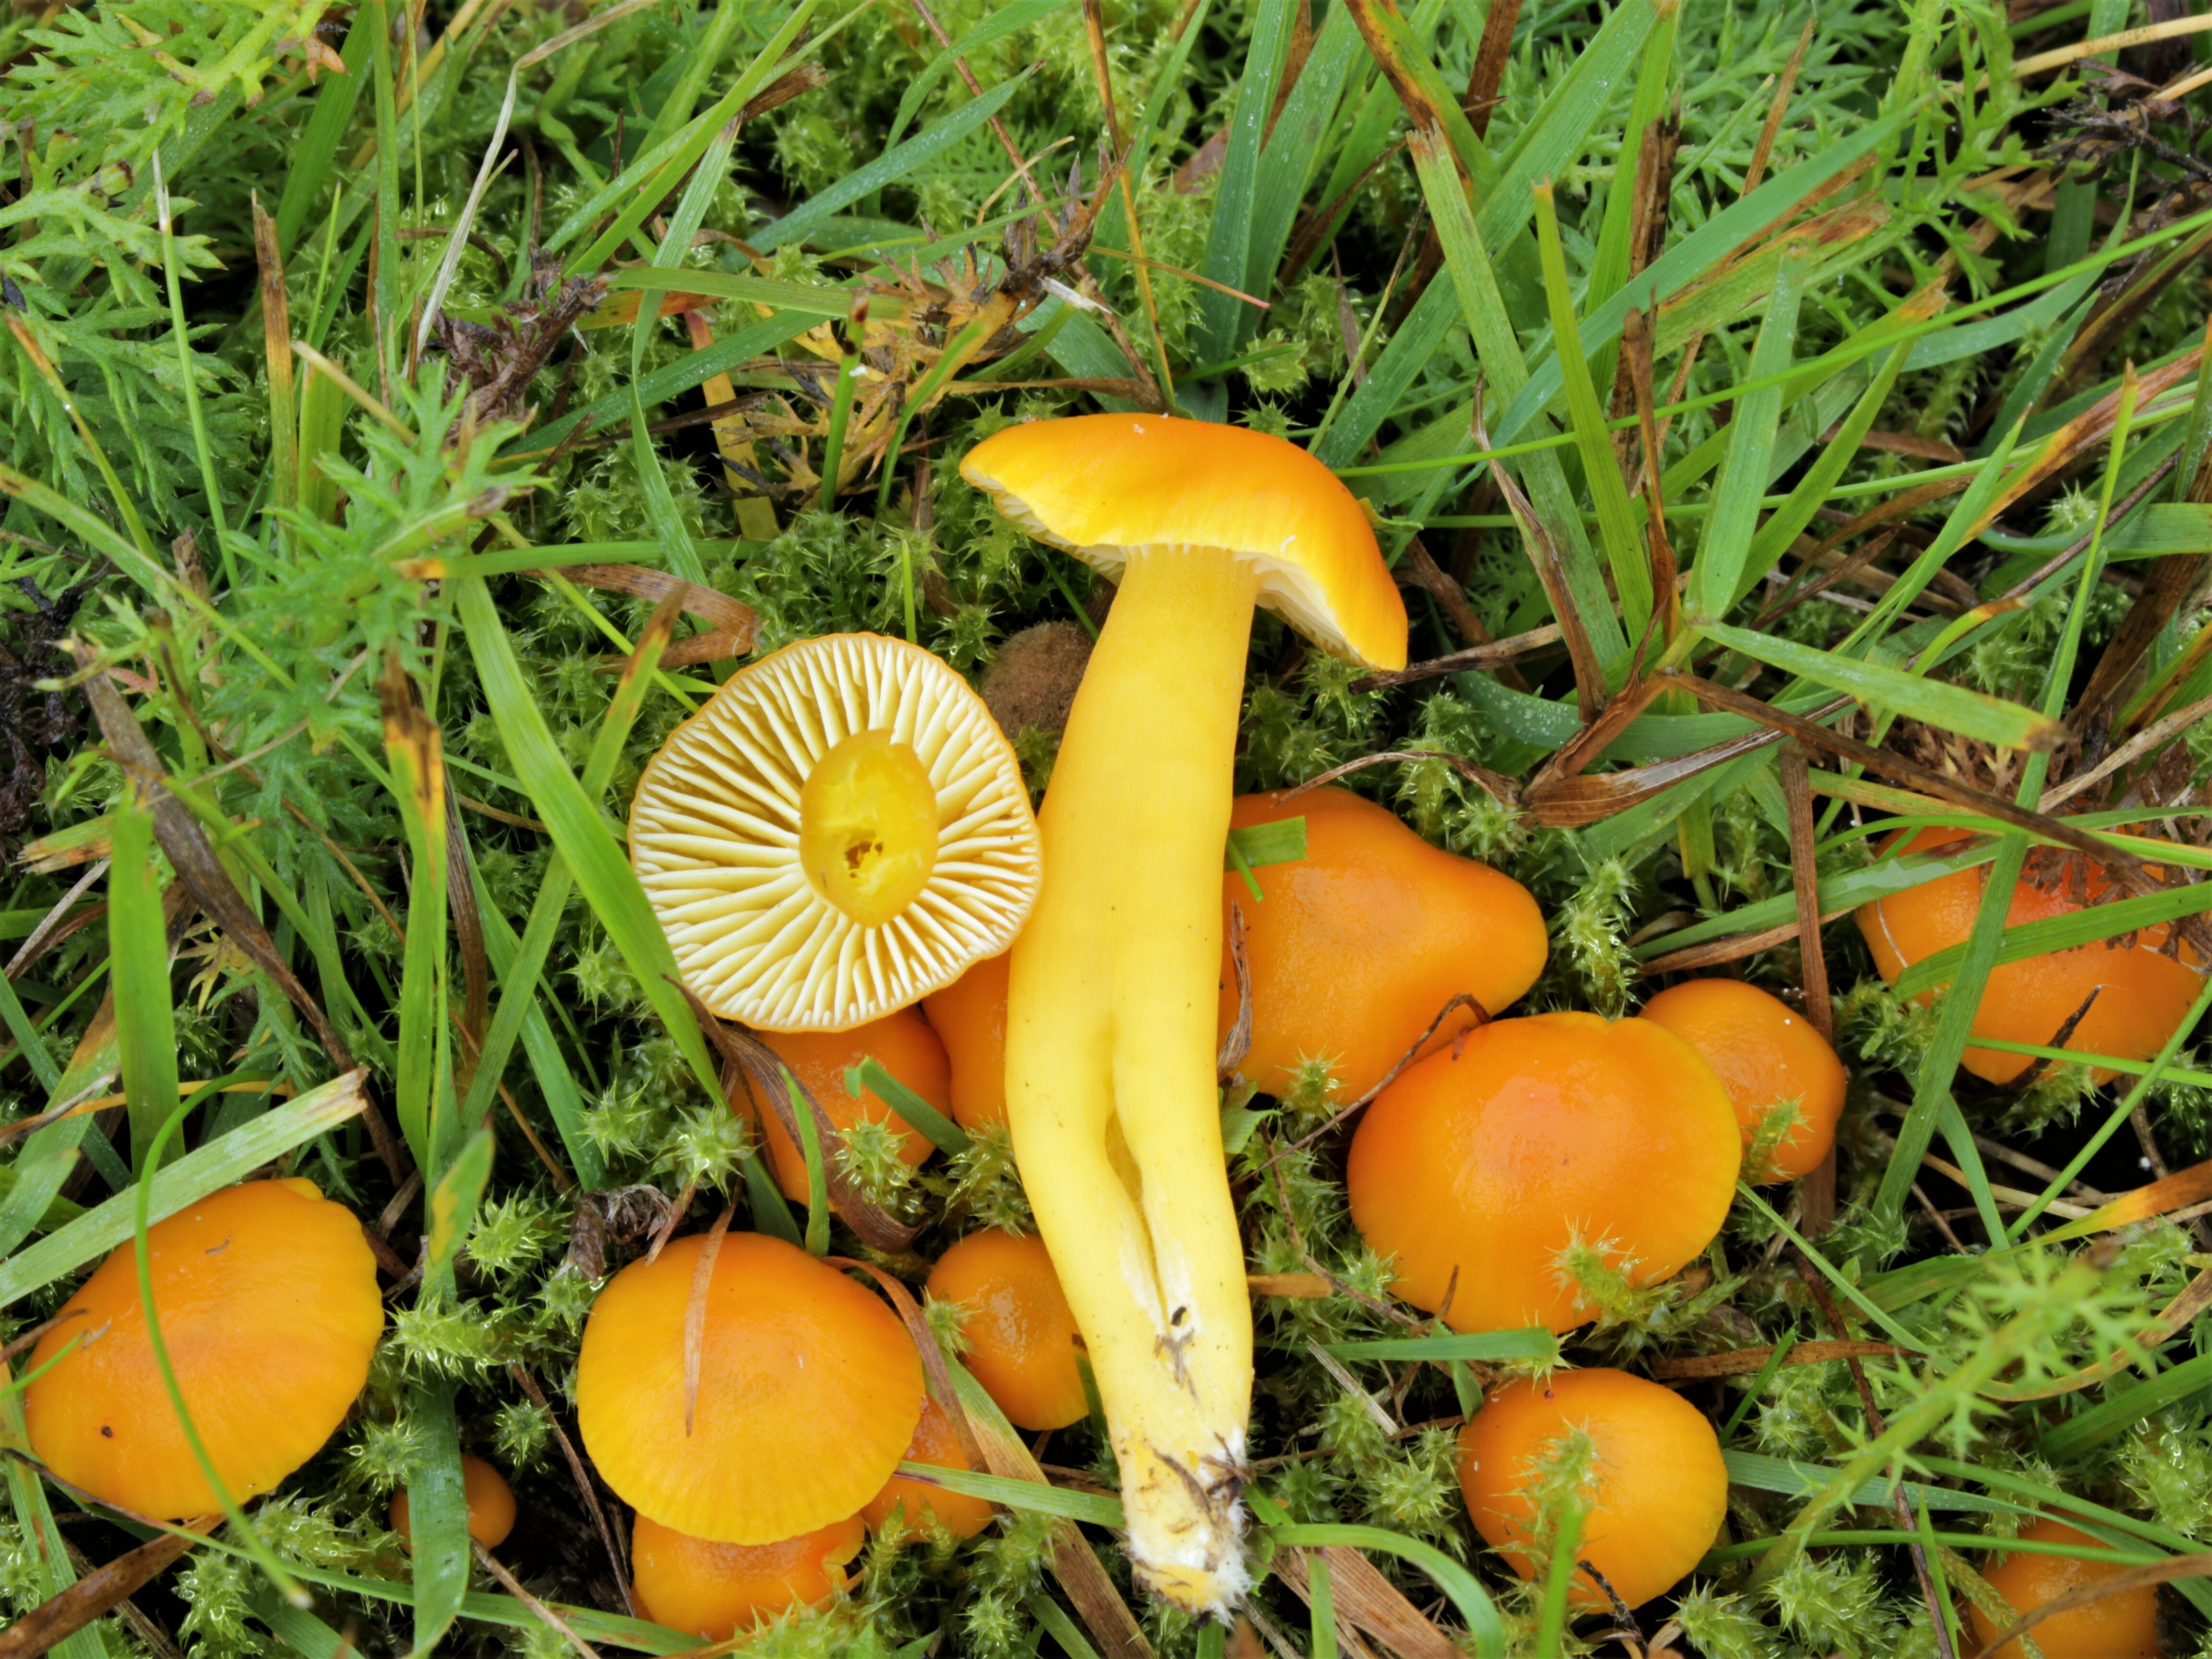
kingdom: Fungi
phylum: Basidiomycota
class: Agaricomycetes
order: Agaricales
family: Hygrophoraceae
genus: Hygrocybe
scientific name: Hygrocybe ceracea
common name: Butter waxcap
